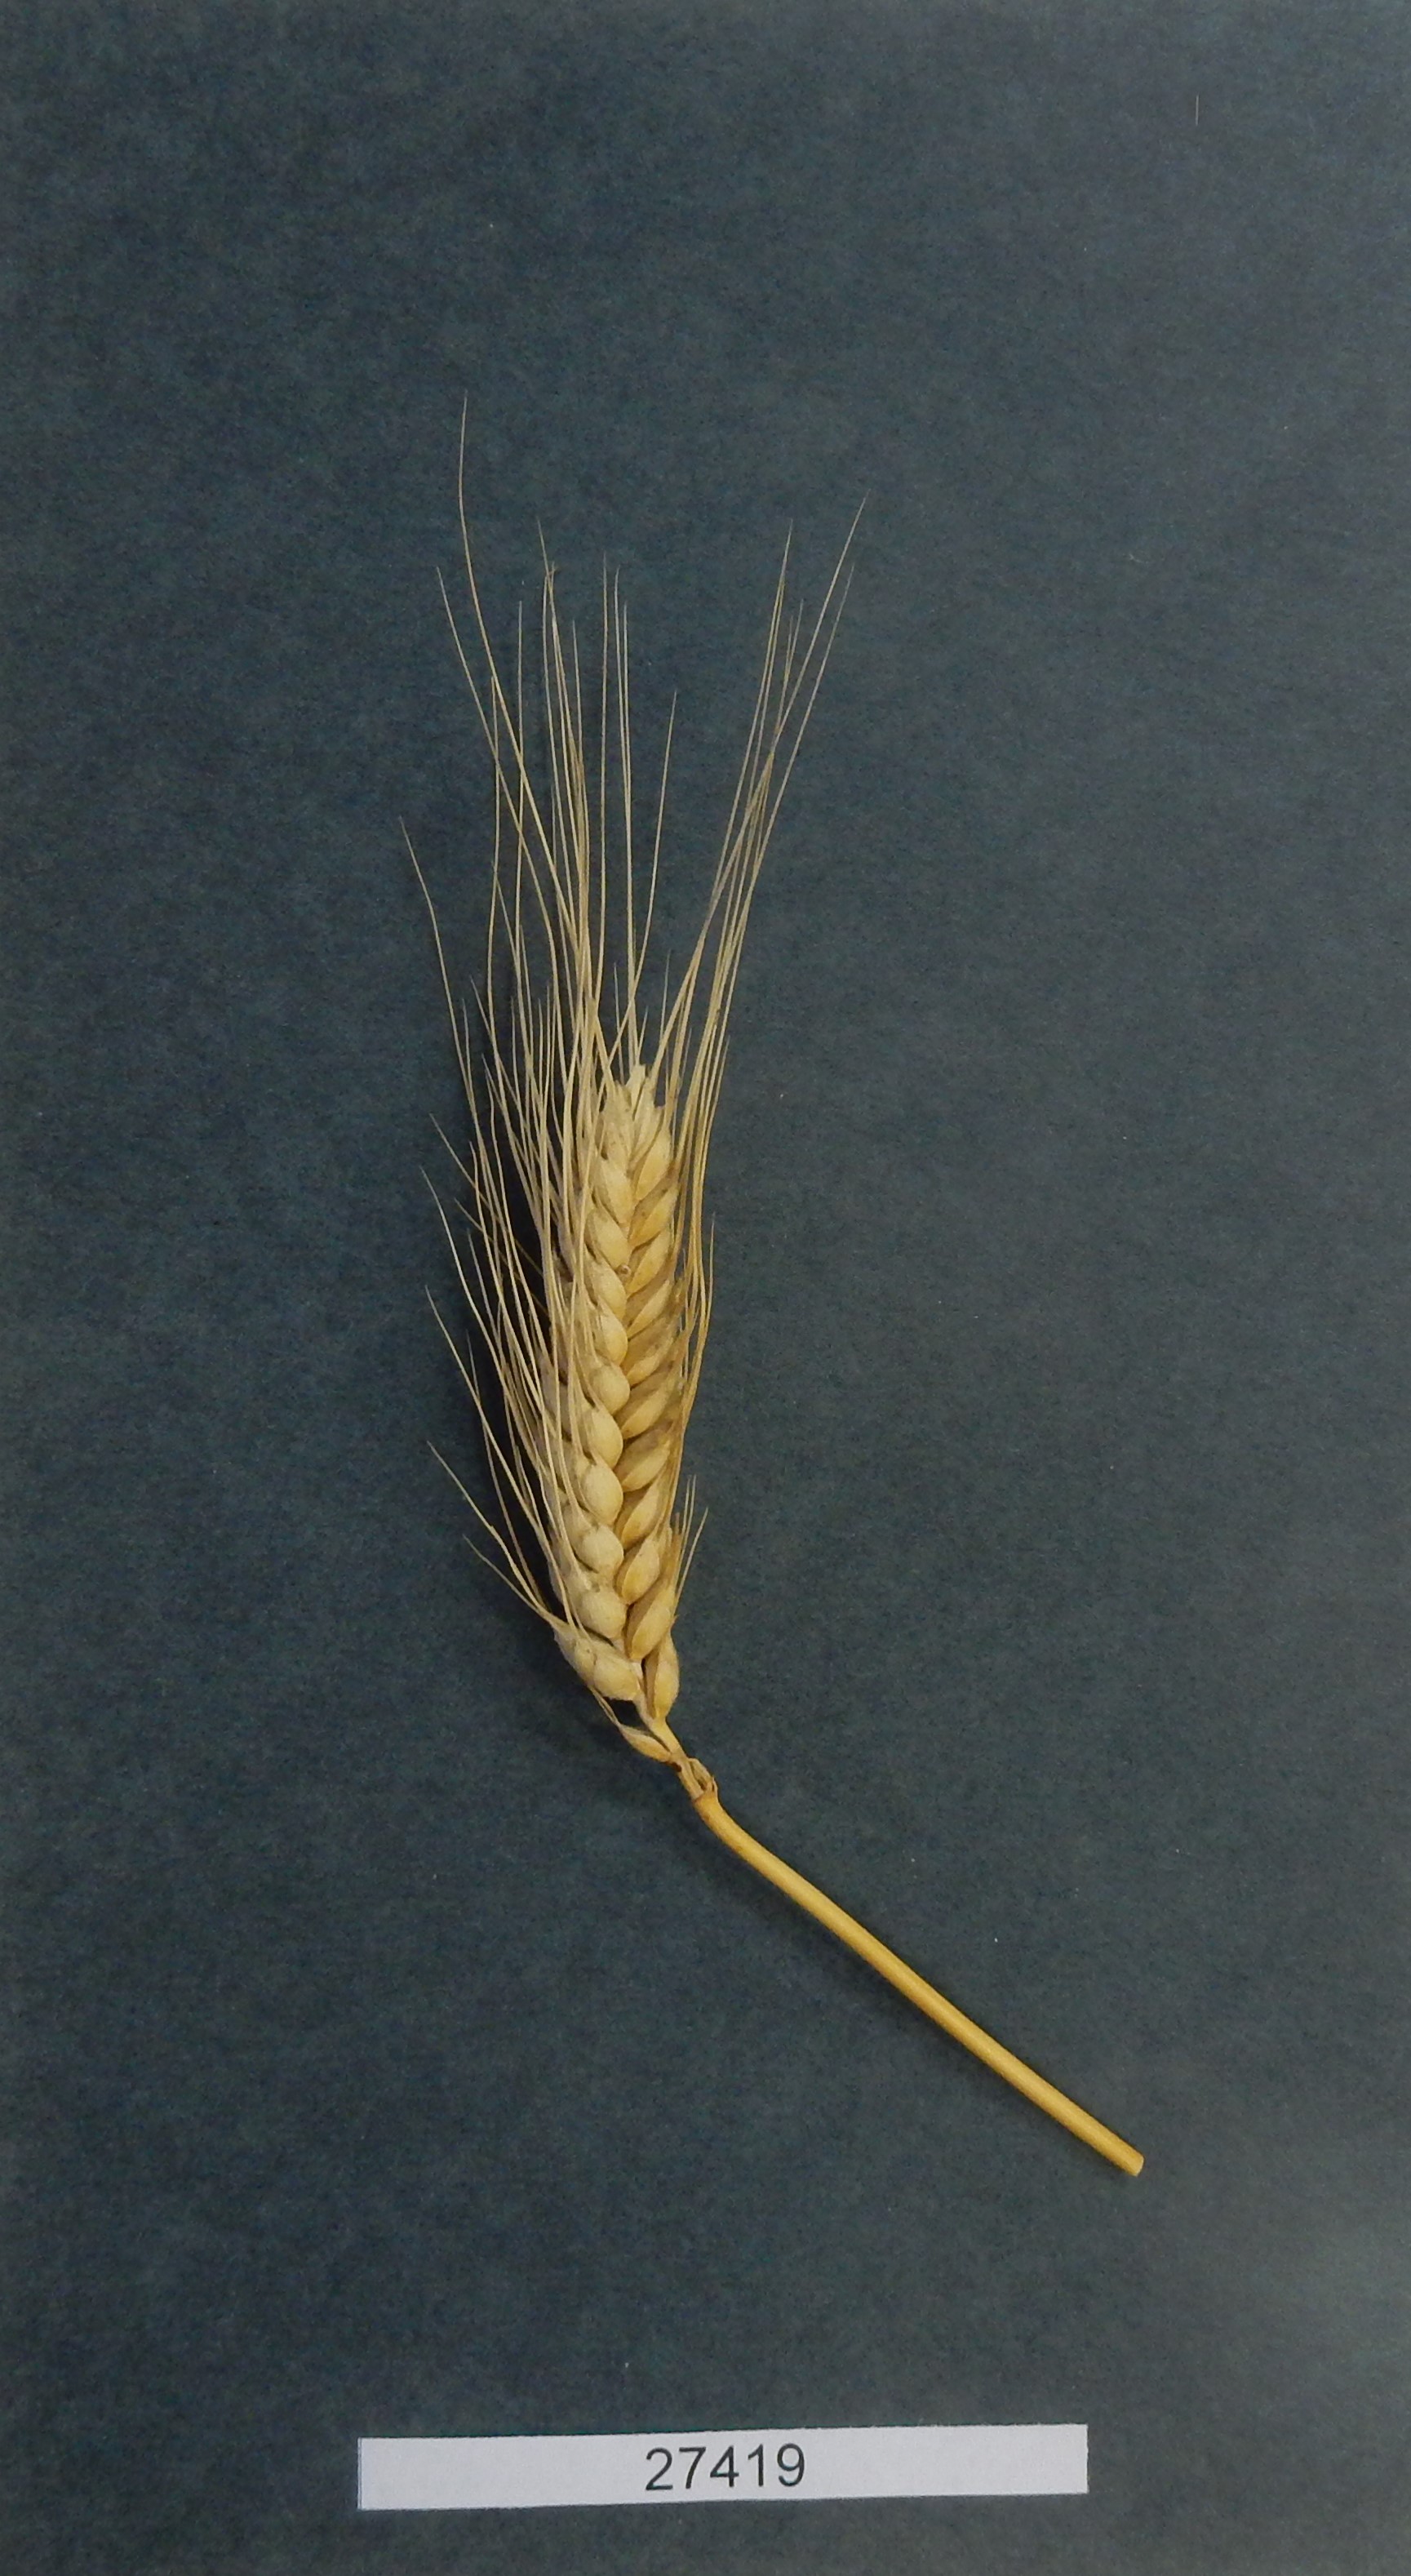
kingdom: Plantae
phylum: Tracheophyta
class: Liliopsida
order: Poales
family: Poaceae
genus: Triticum
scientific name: Triticum aestivum
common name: Common wheat
